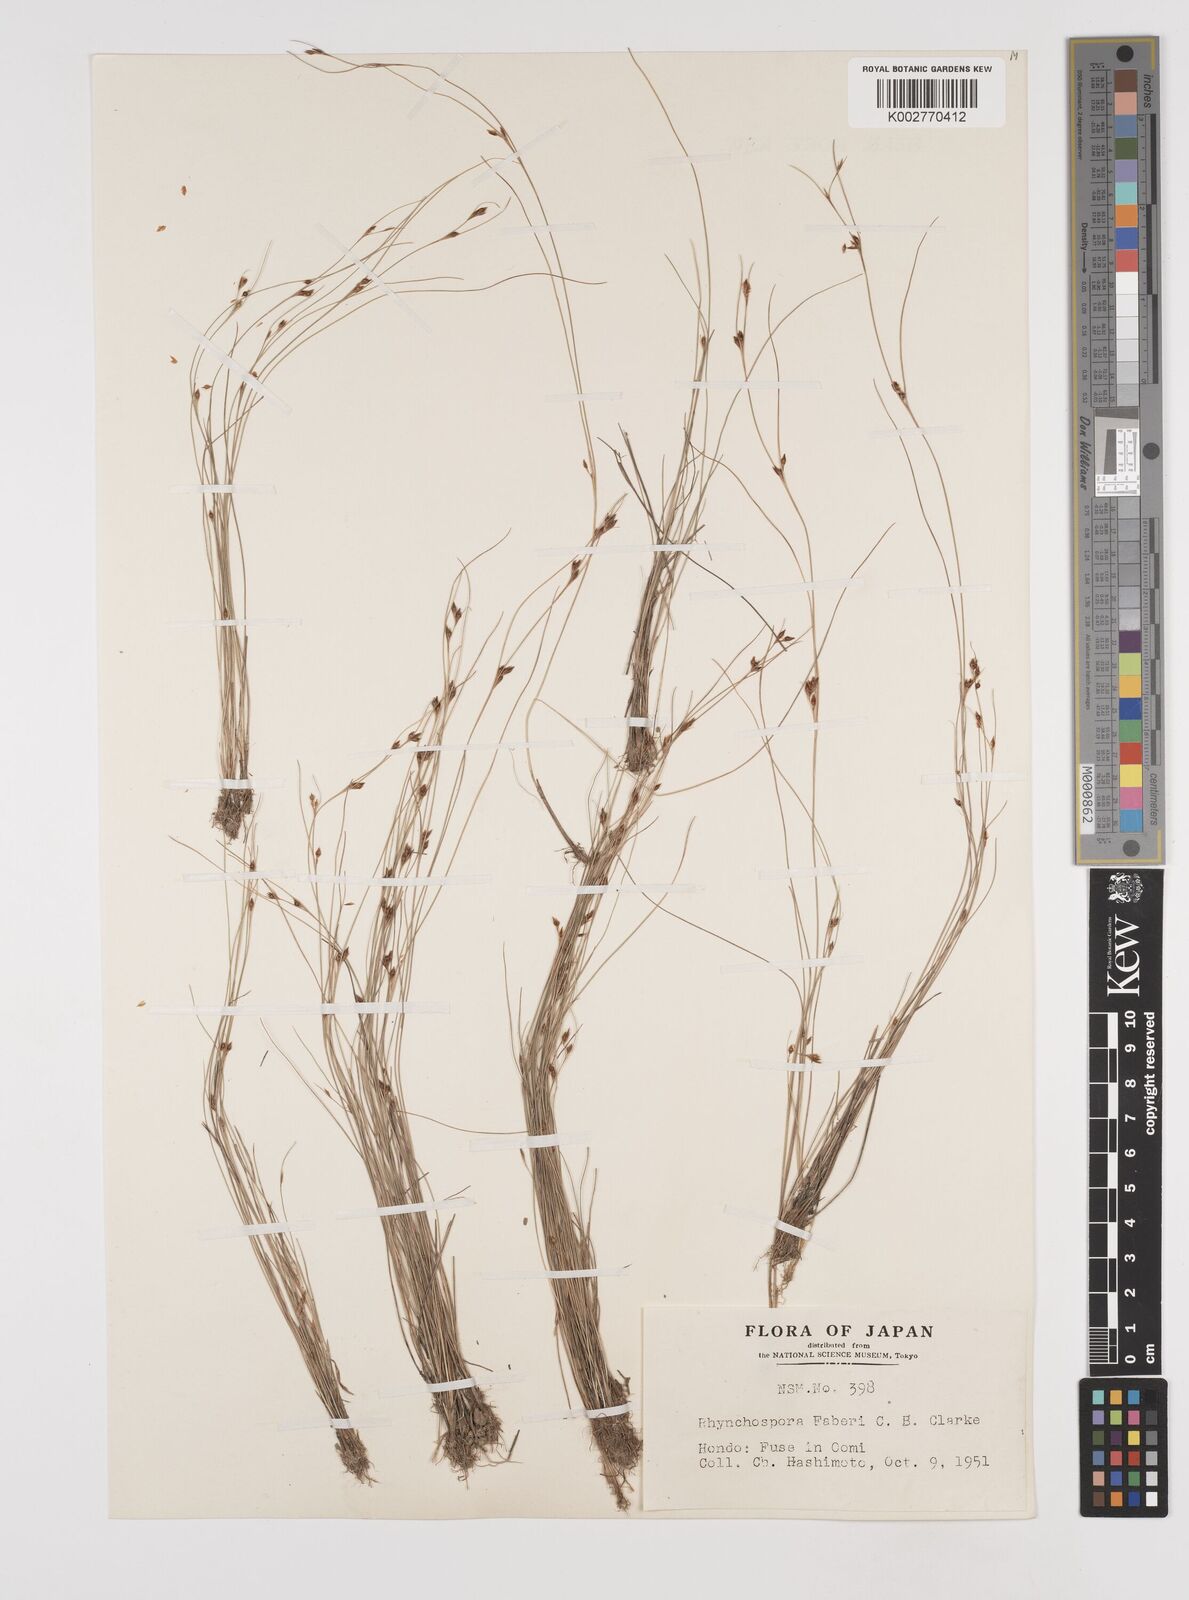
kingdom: Plantae
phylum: Tracheophyta
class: Liliopsida
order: Poales
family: Cyperaceae
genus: Rhynchospora
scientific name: Rhynchospora faberi
